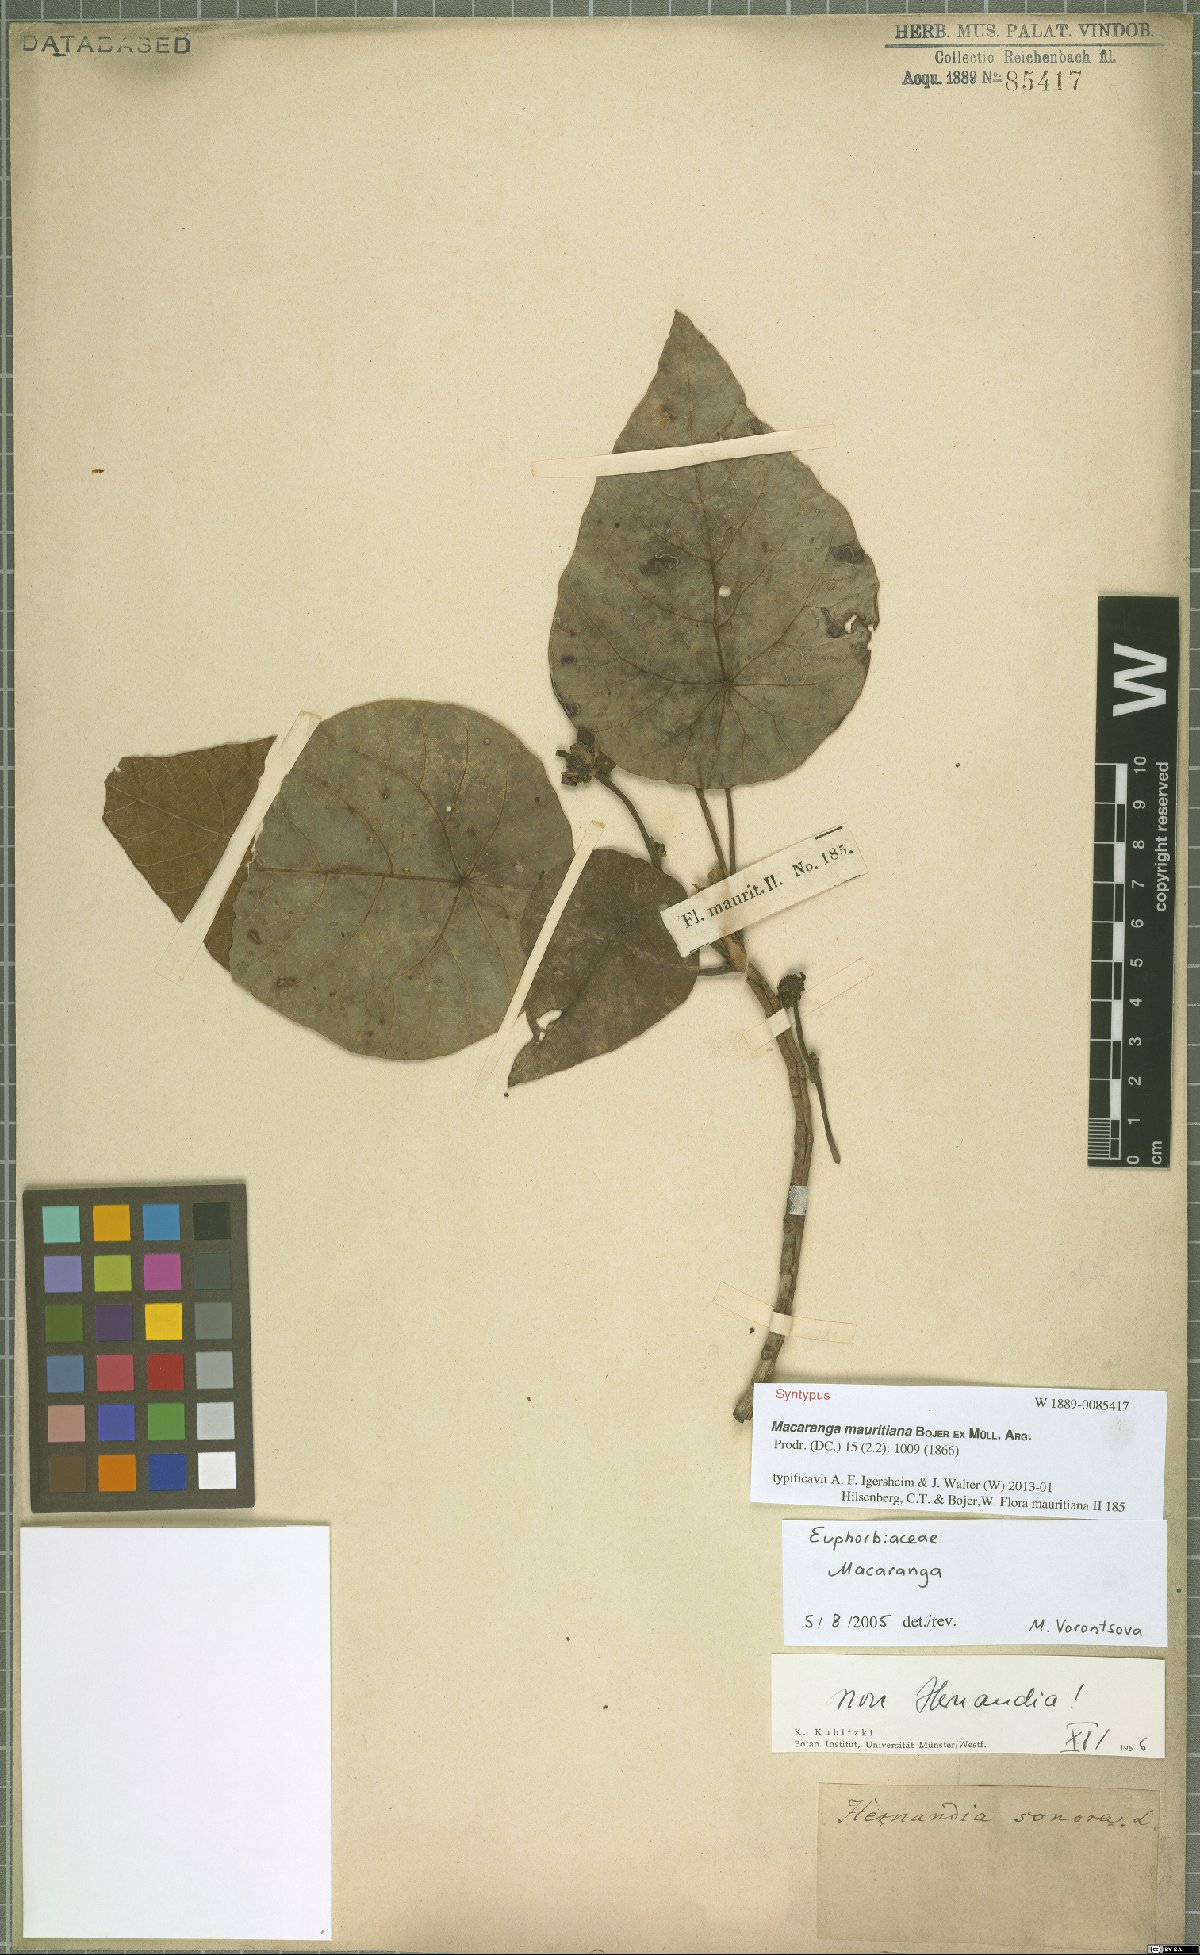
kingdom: Plantae
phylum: Tracheophyta
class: Magnoliopsida
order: Malpighiales
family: Euphorbiaceae
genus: Macaranga
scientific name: Macaranga mauritiana
